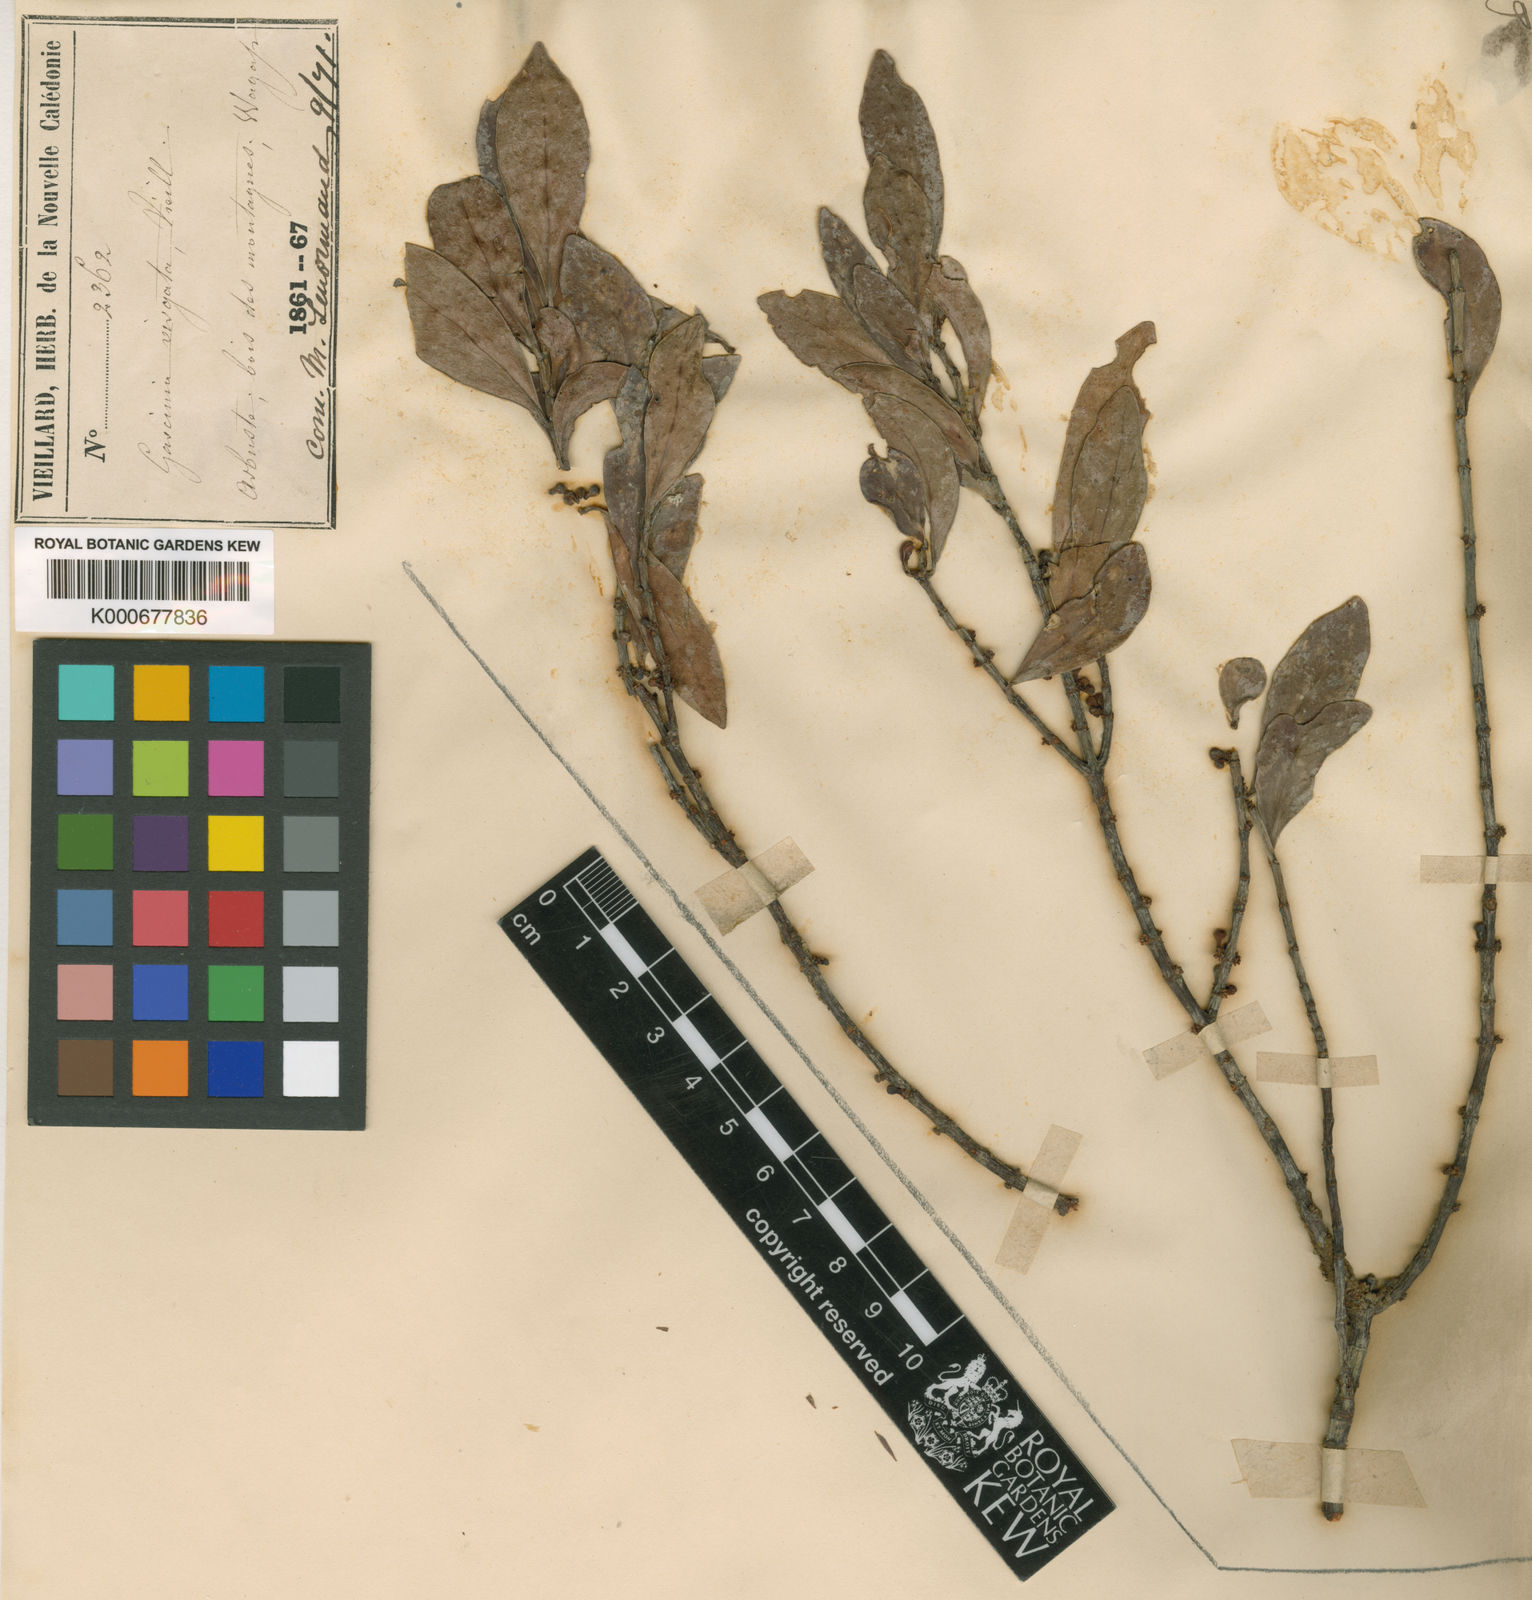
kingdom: Plantae
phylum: Tracheophyta
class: Magnoliopsida
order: Malpighiales
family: Clusiaceae
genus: Garcinia
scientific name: Garcinia
